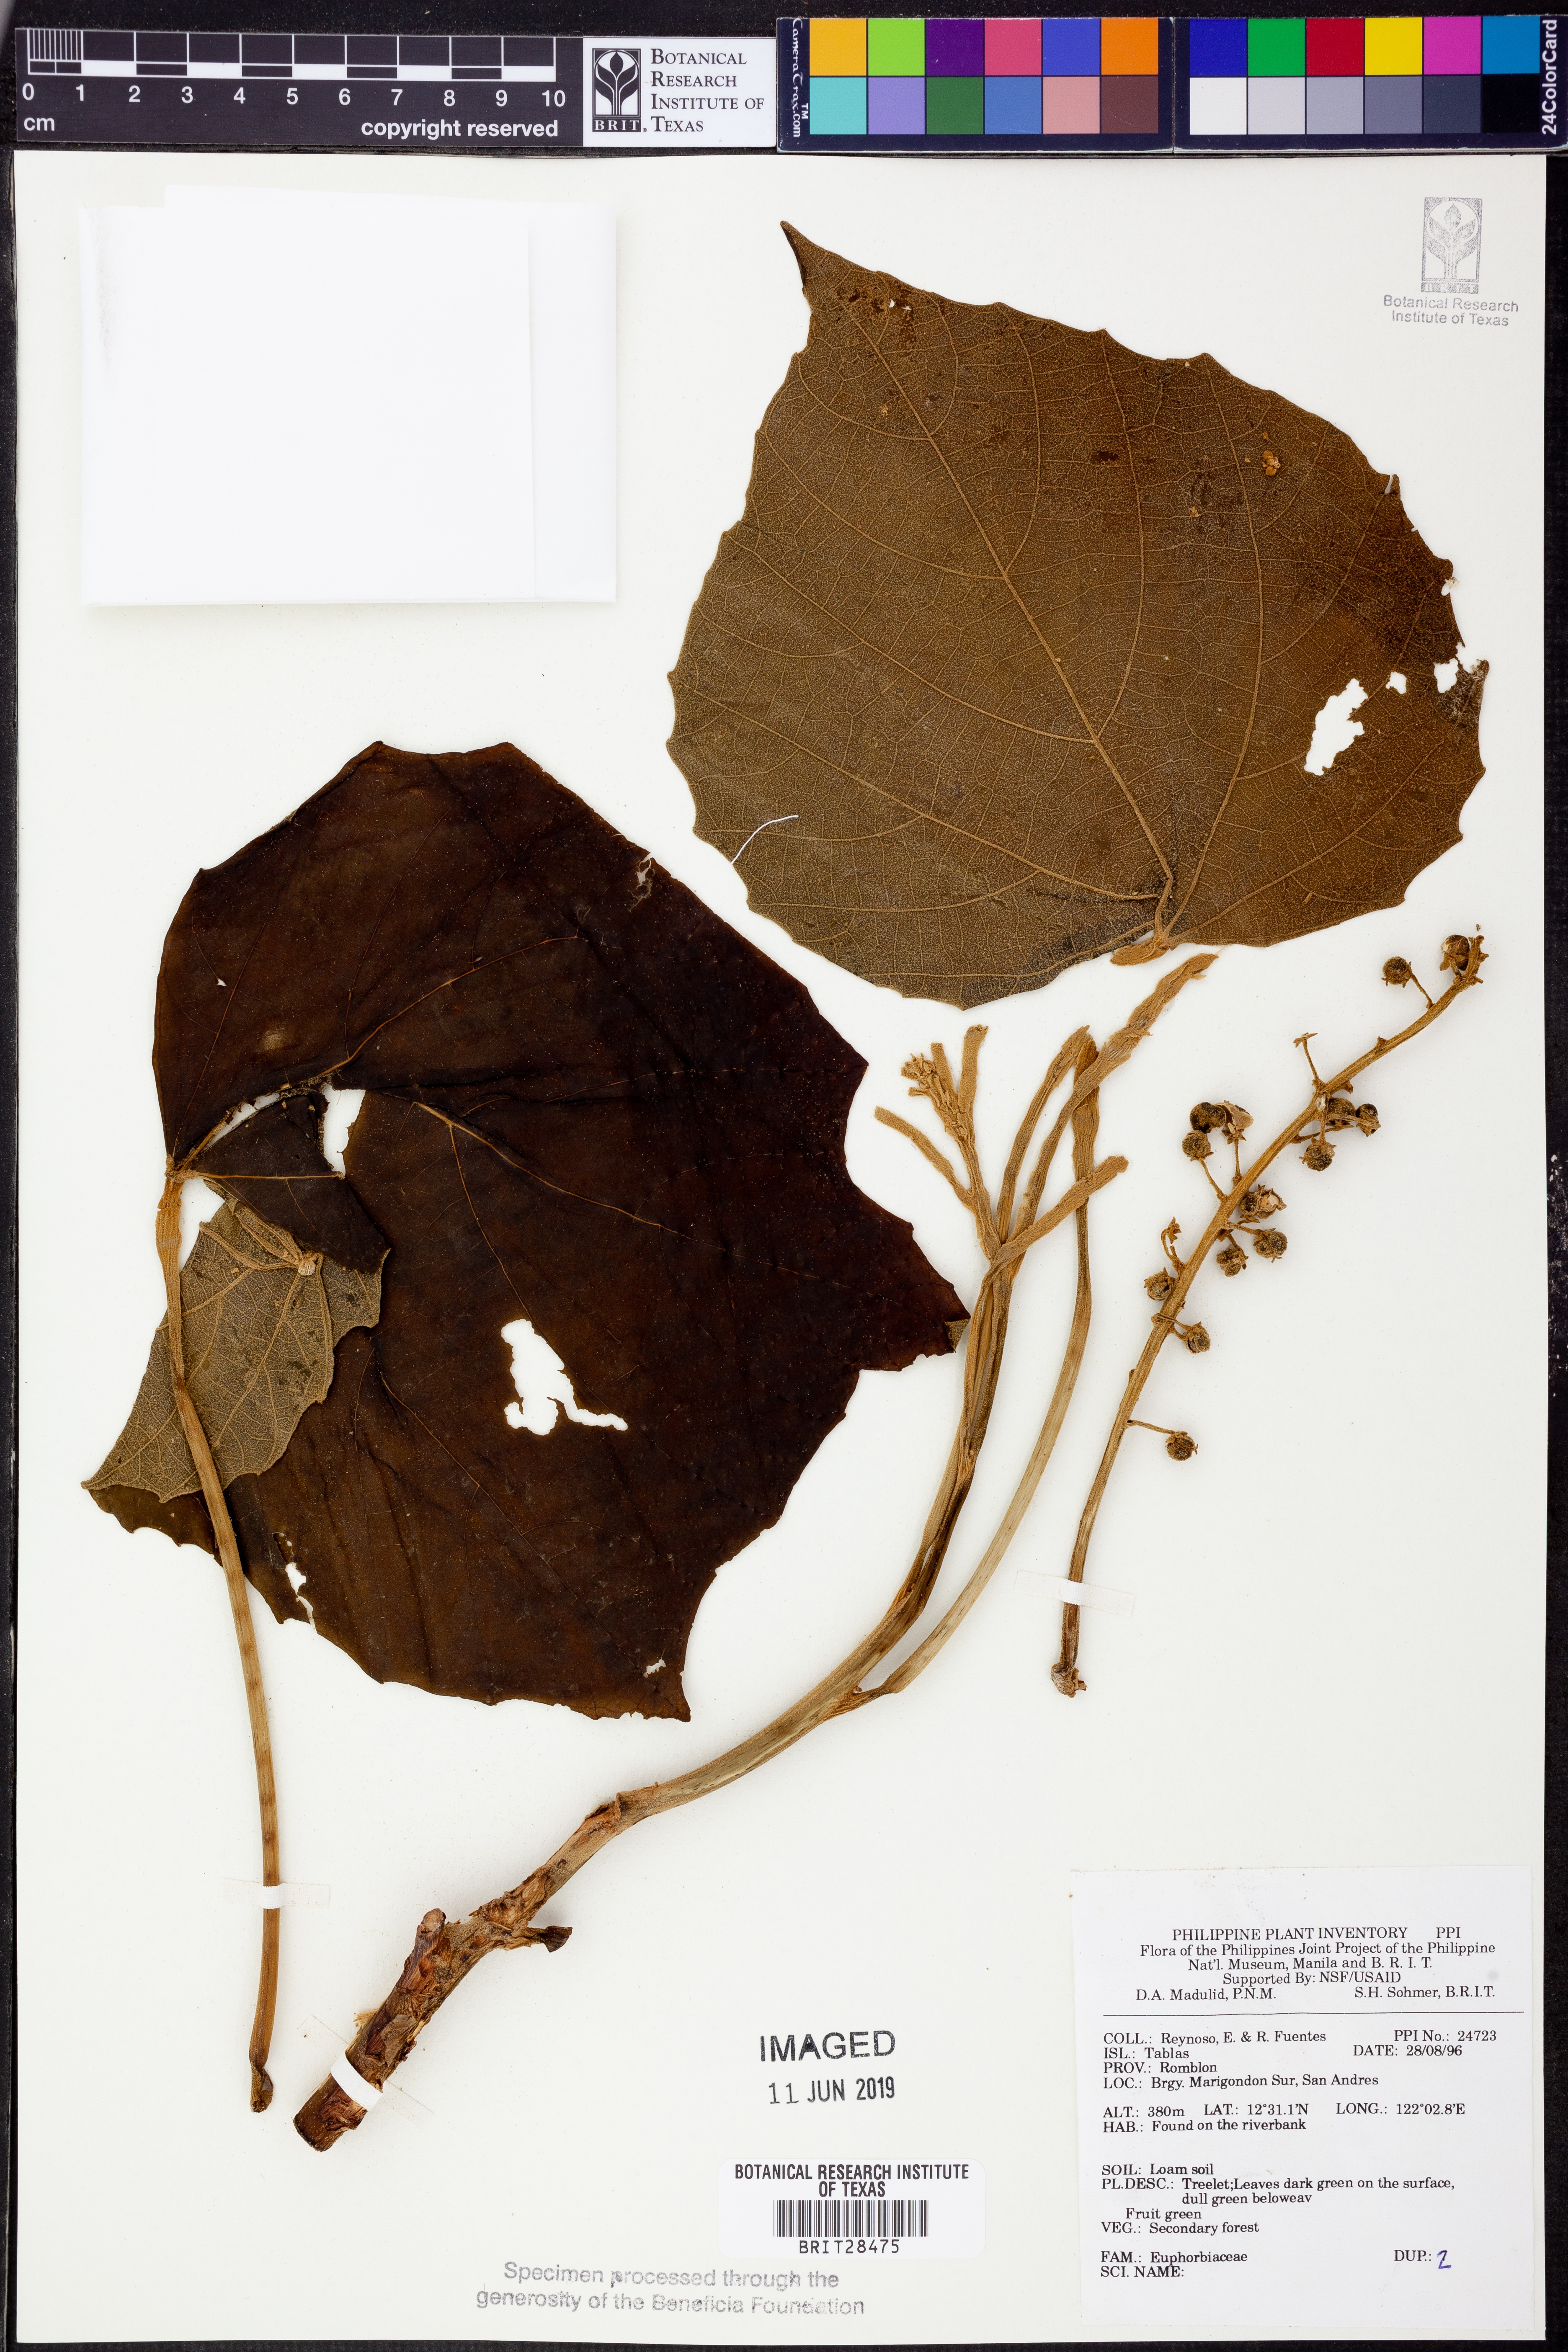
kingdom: Plantae
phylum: Tracheophyta
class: Magnoliopsida
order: Malpighiales
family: Euphorbiaceae
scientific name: Euphorbiaceae
